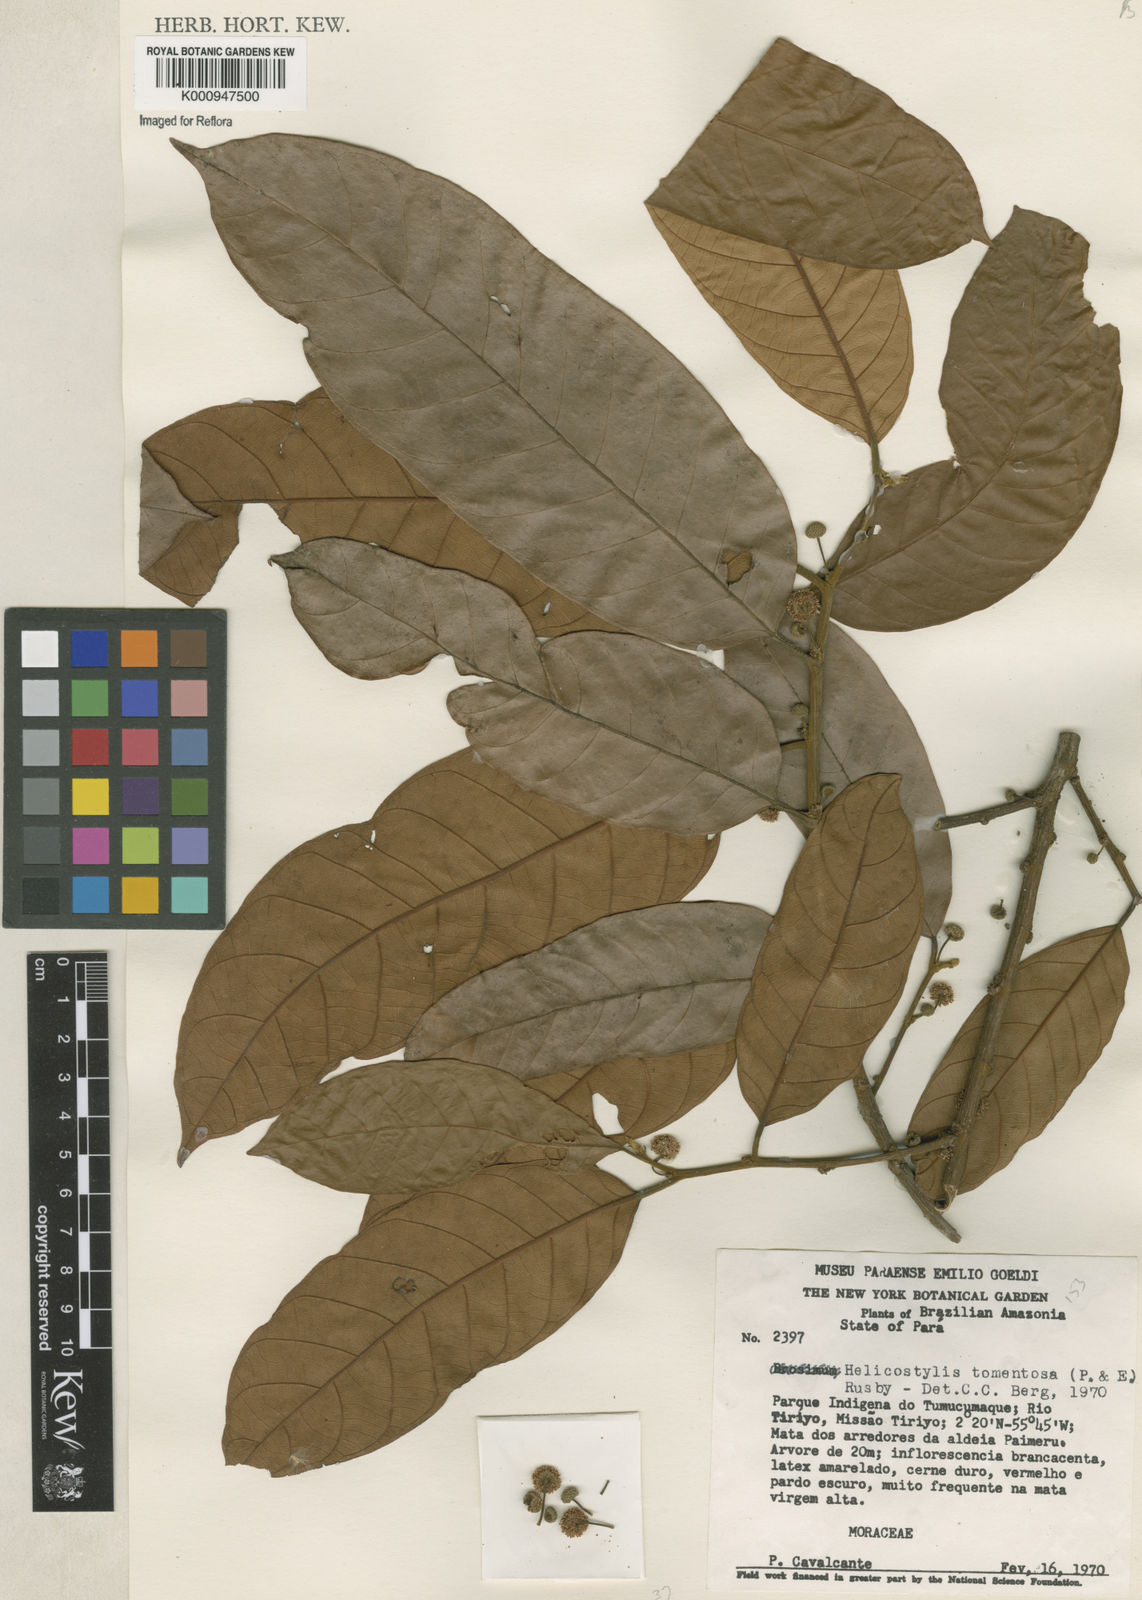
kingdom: Plantae
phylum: Tracheophyta
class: Magnoliopsida
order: Rosales
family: Moraceae
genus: Helicostylis
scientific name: Helicostylis
